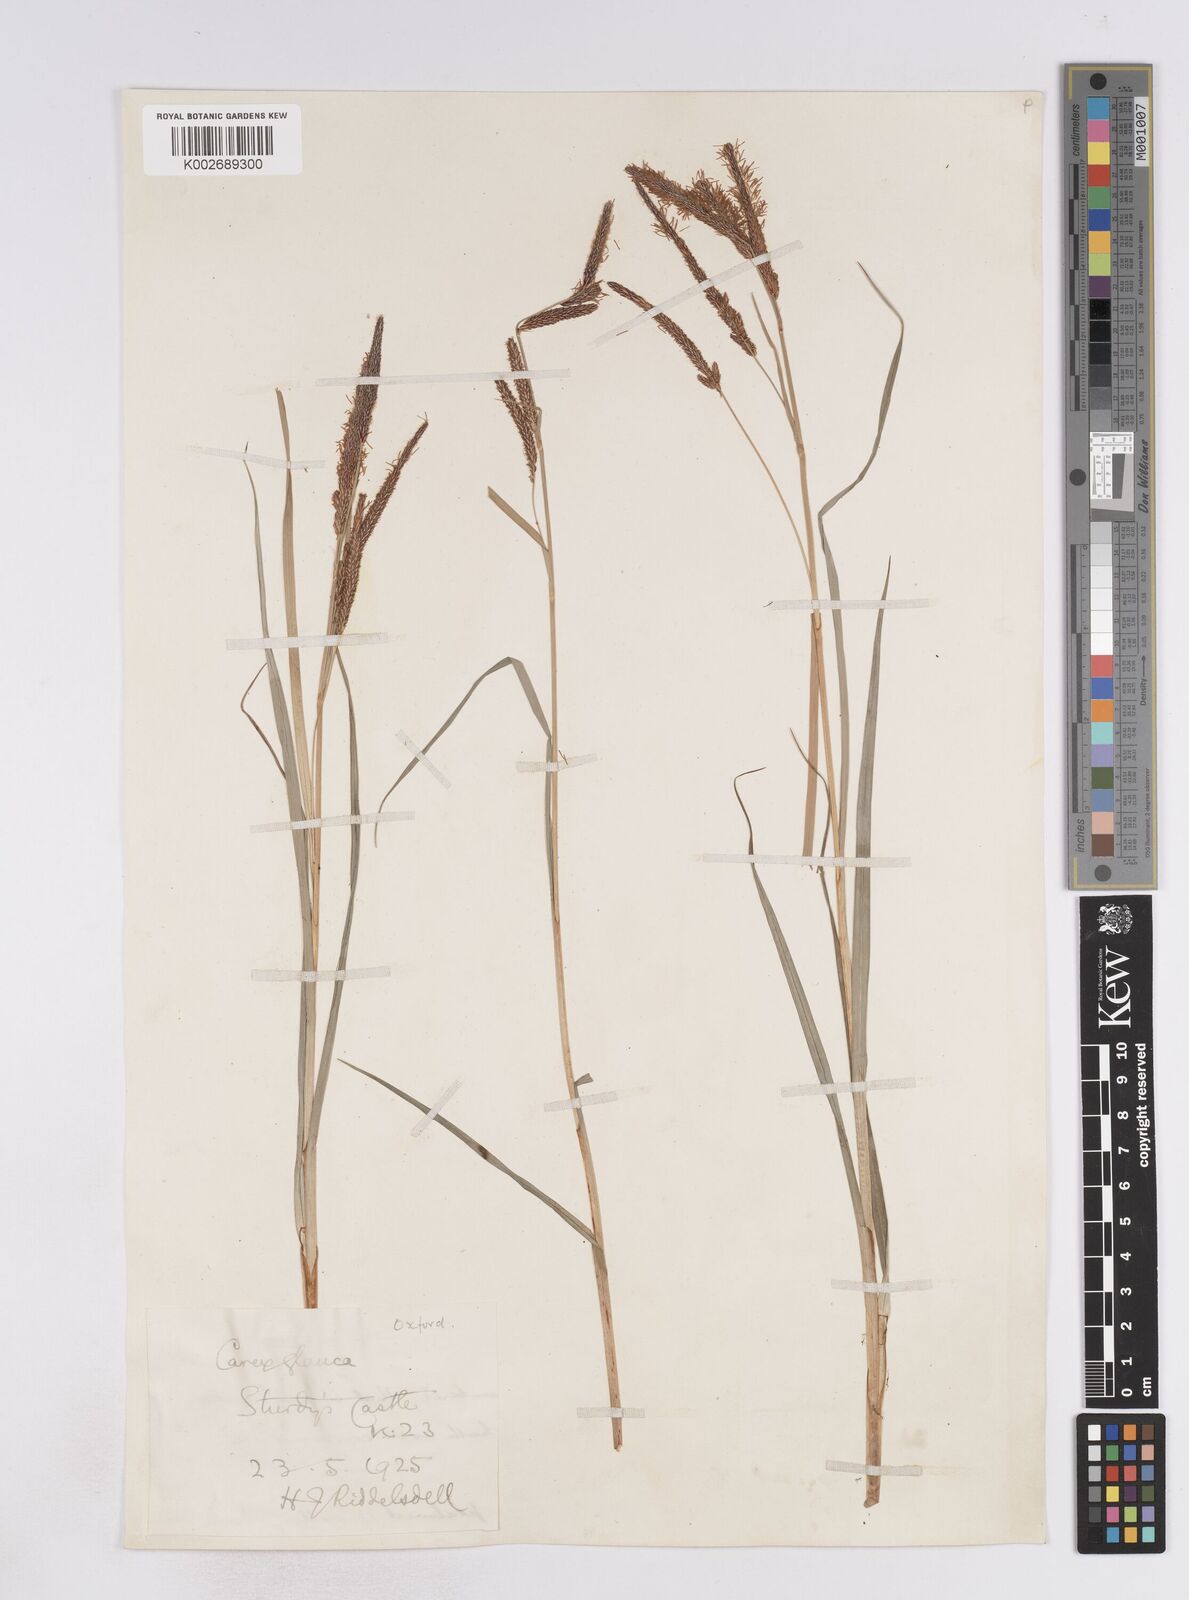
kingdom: Plantae
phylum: Tracheophyta
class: Liliopsida
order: Poales
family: Cyperaceae
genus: Carex
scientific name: Carex flacca
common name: Glaucous sedge
